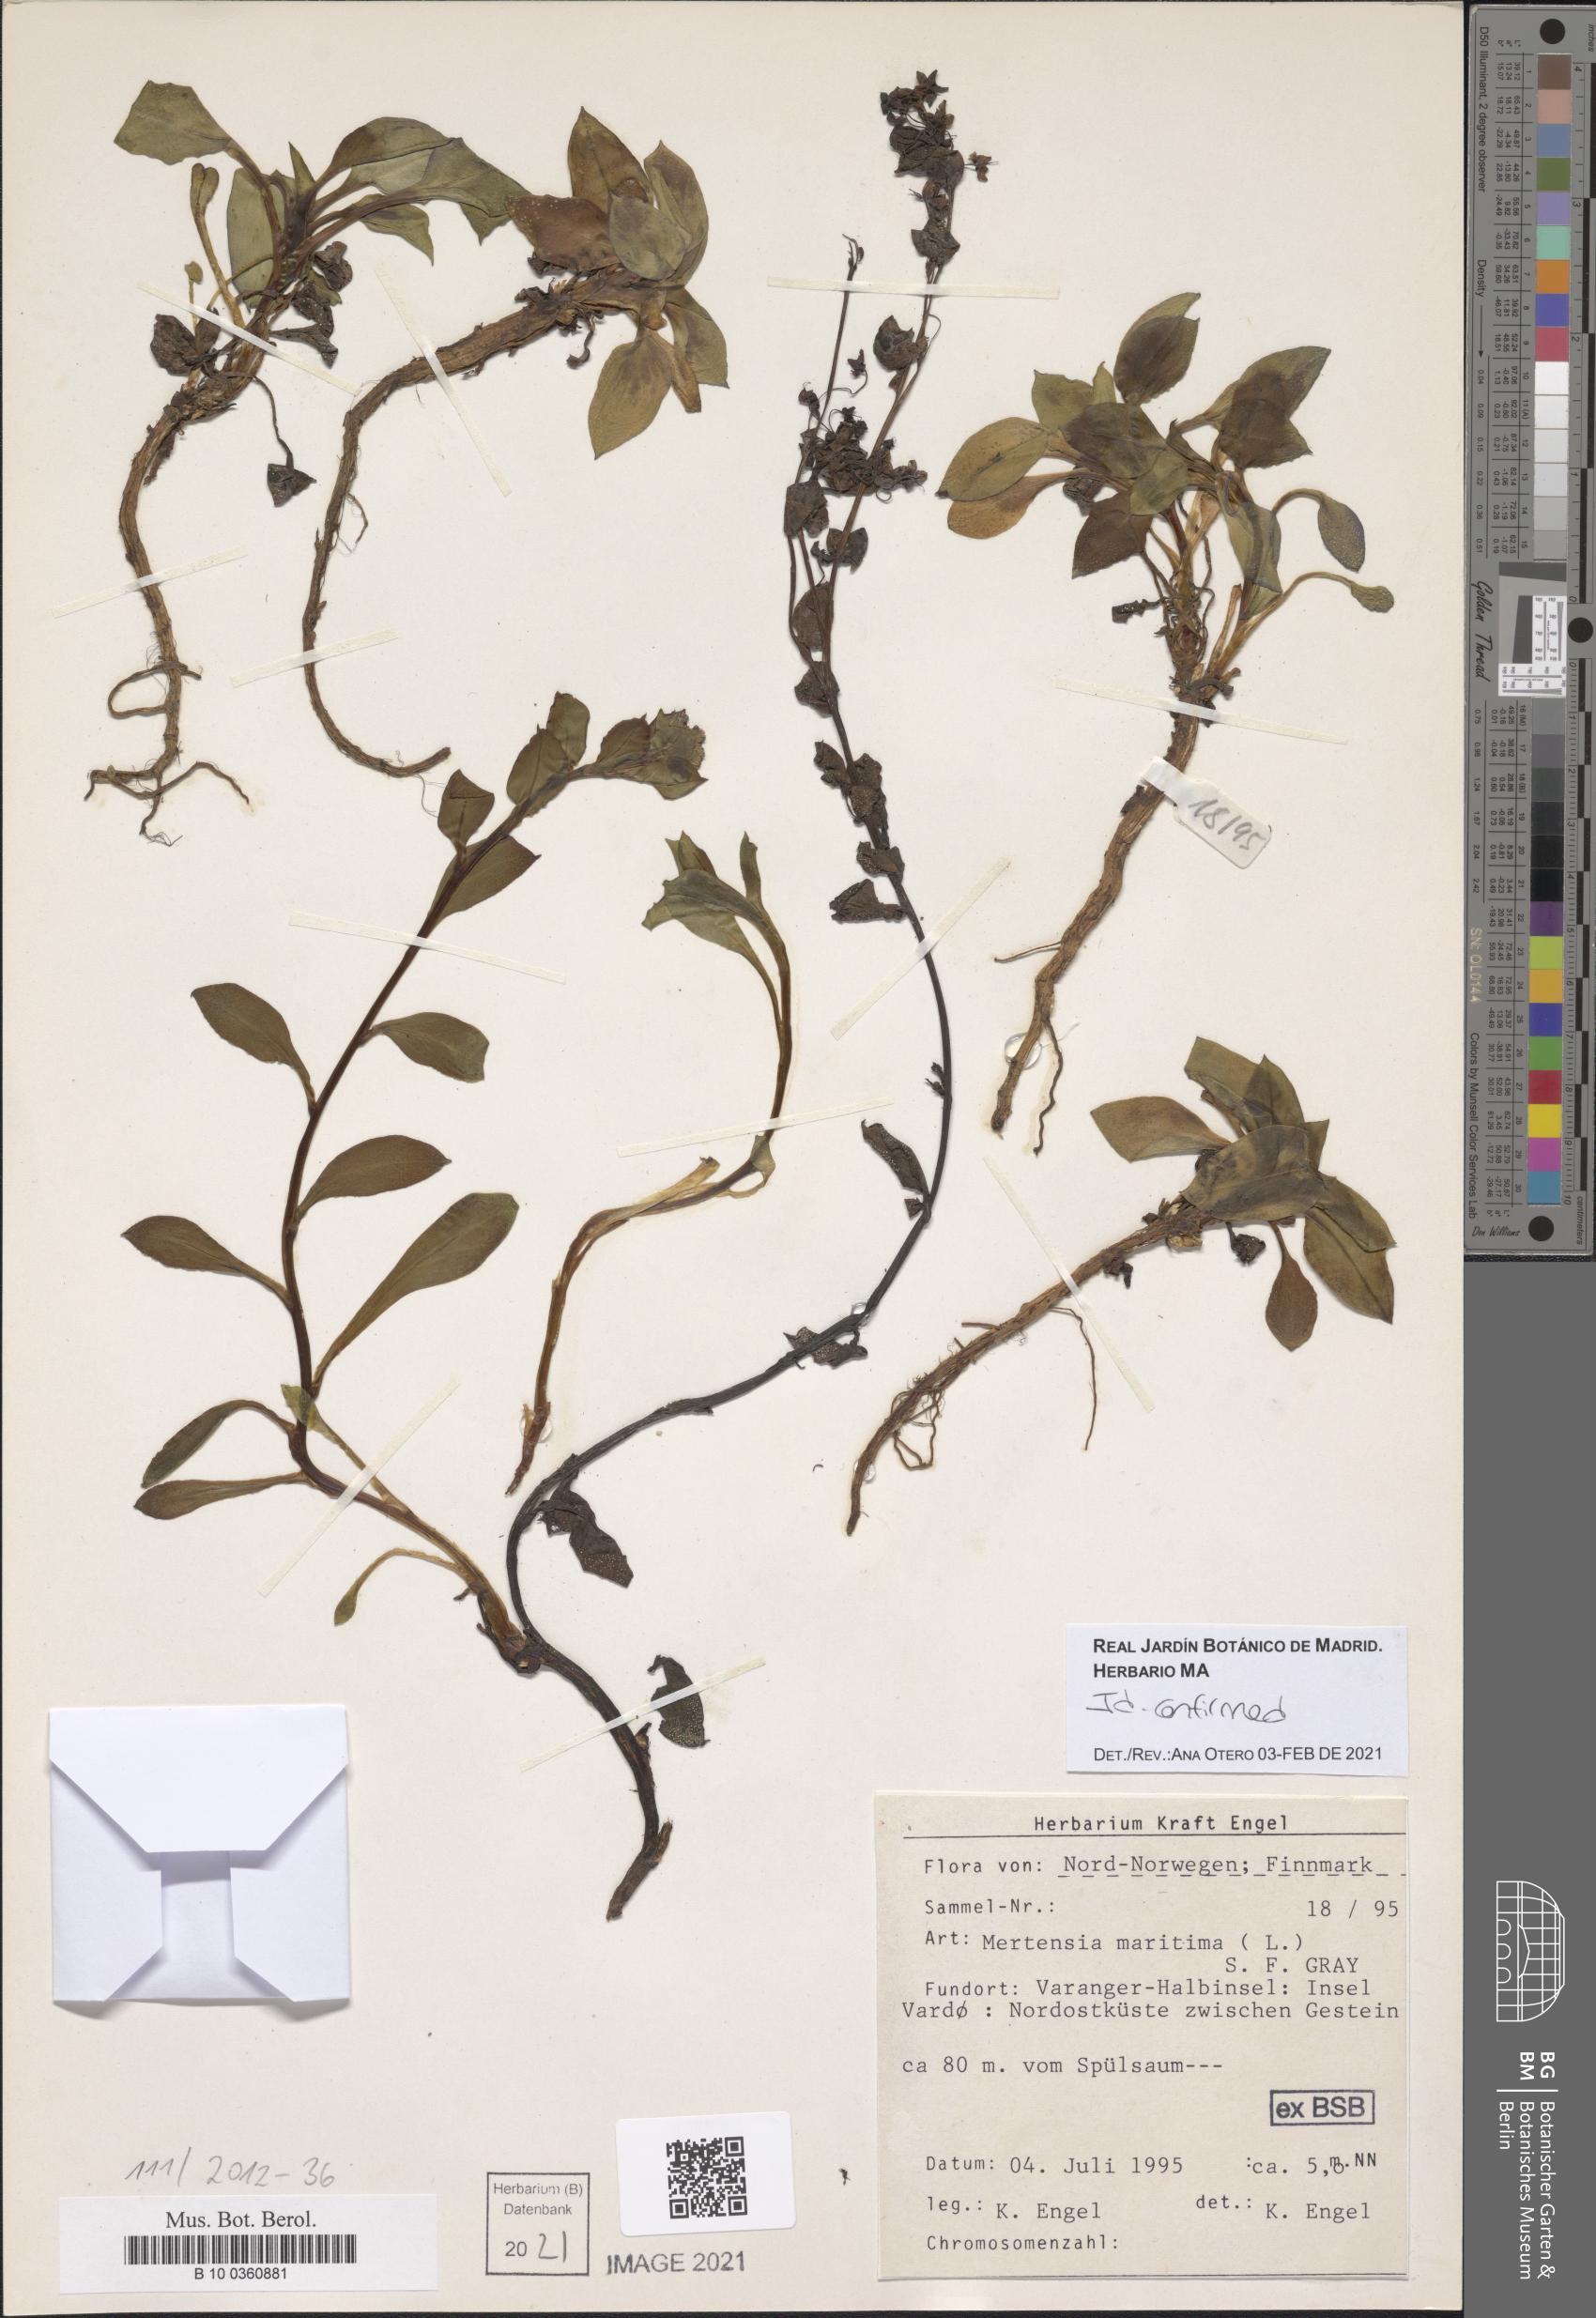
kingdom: Plantae
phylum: Tracheophyta
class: Magnoliopsida
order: Boraginales
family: Boraginaceae
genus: Mertensia
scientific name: Mertensia maritima
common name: Oysterplant
